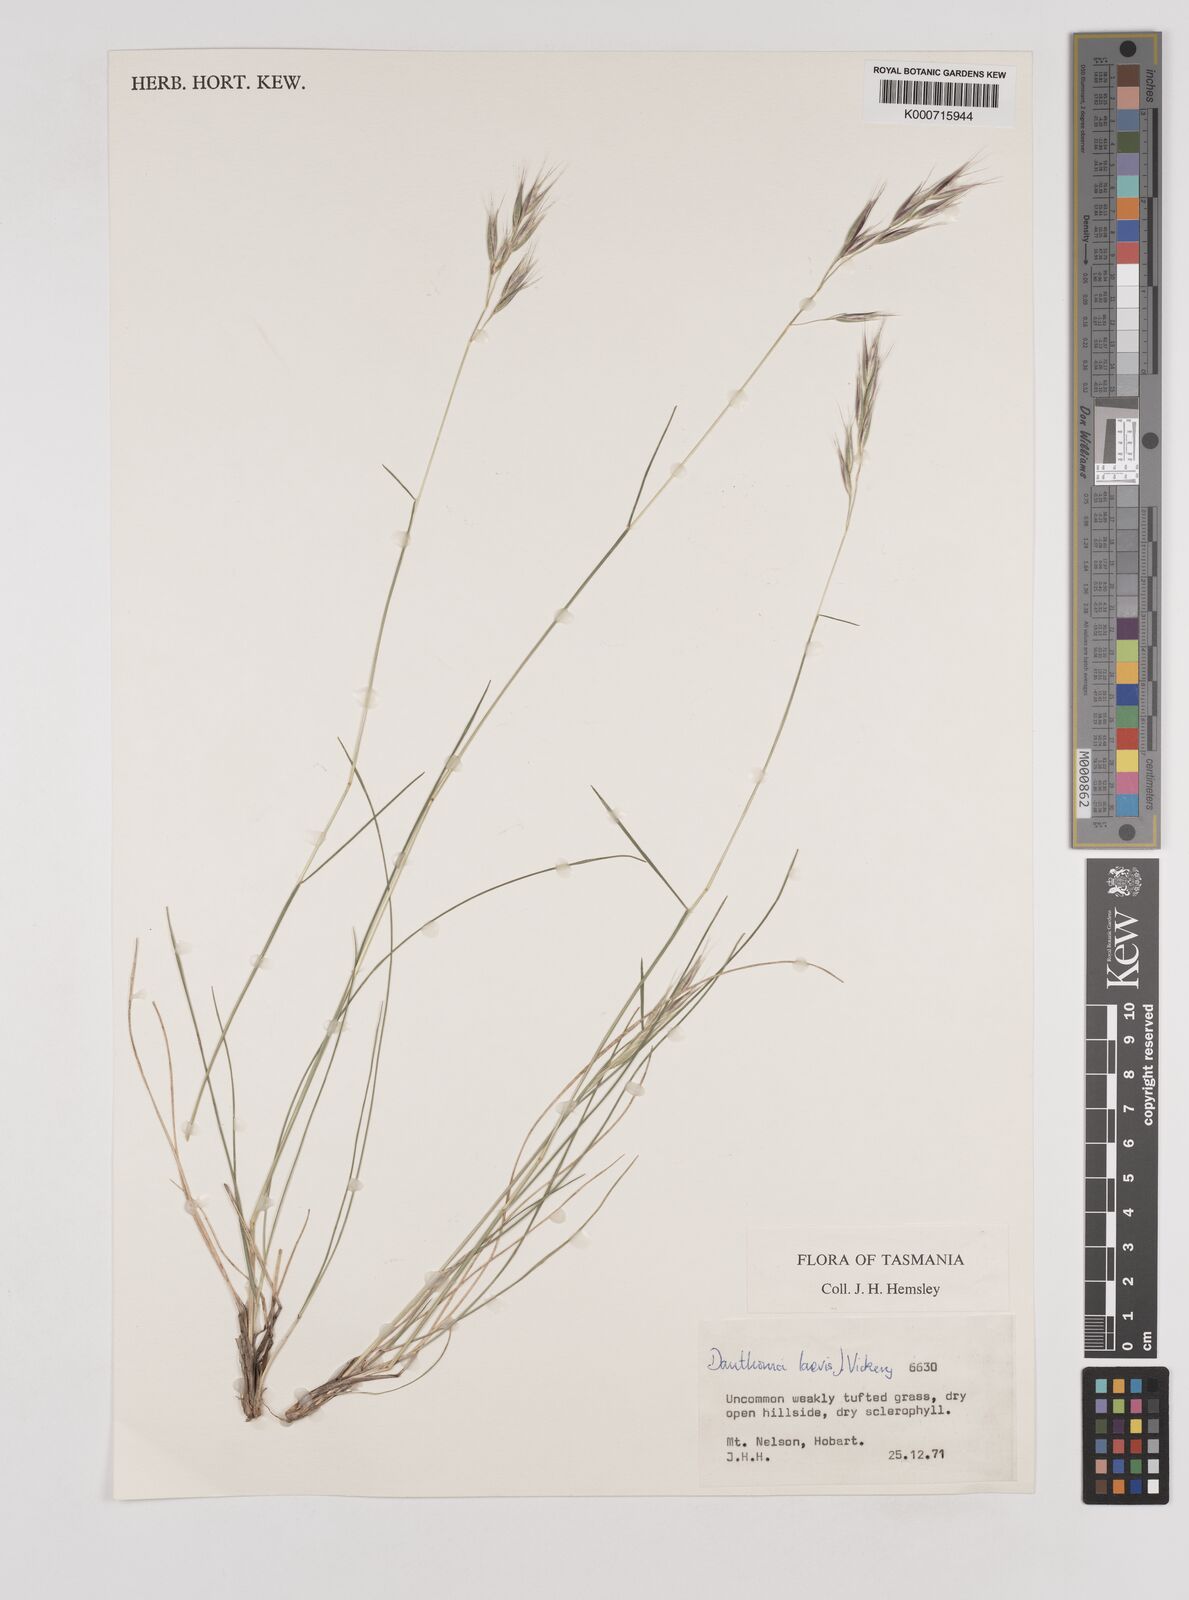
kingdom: Plantae
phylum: Tracheophyta
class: Liliopsida
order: Poales
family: Poaceae
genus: Rytidosperma
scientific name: Rytidosperma laeve
